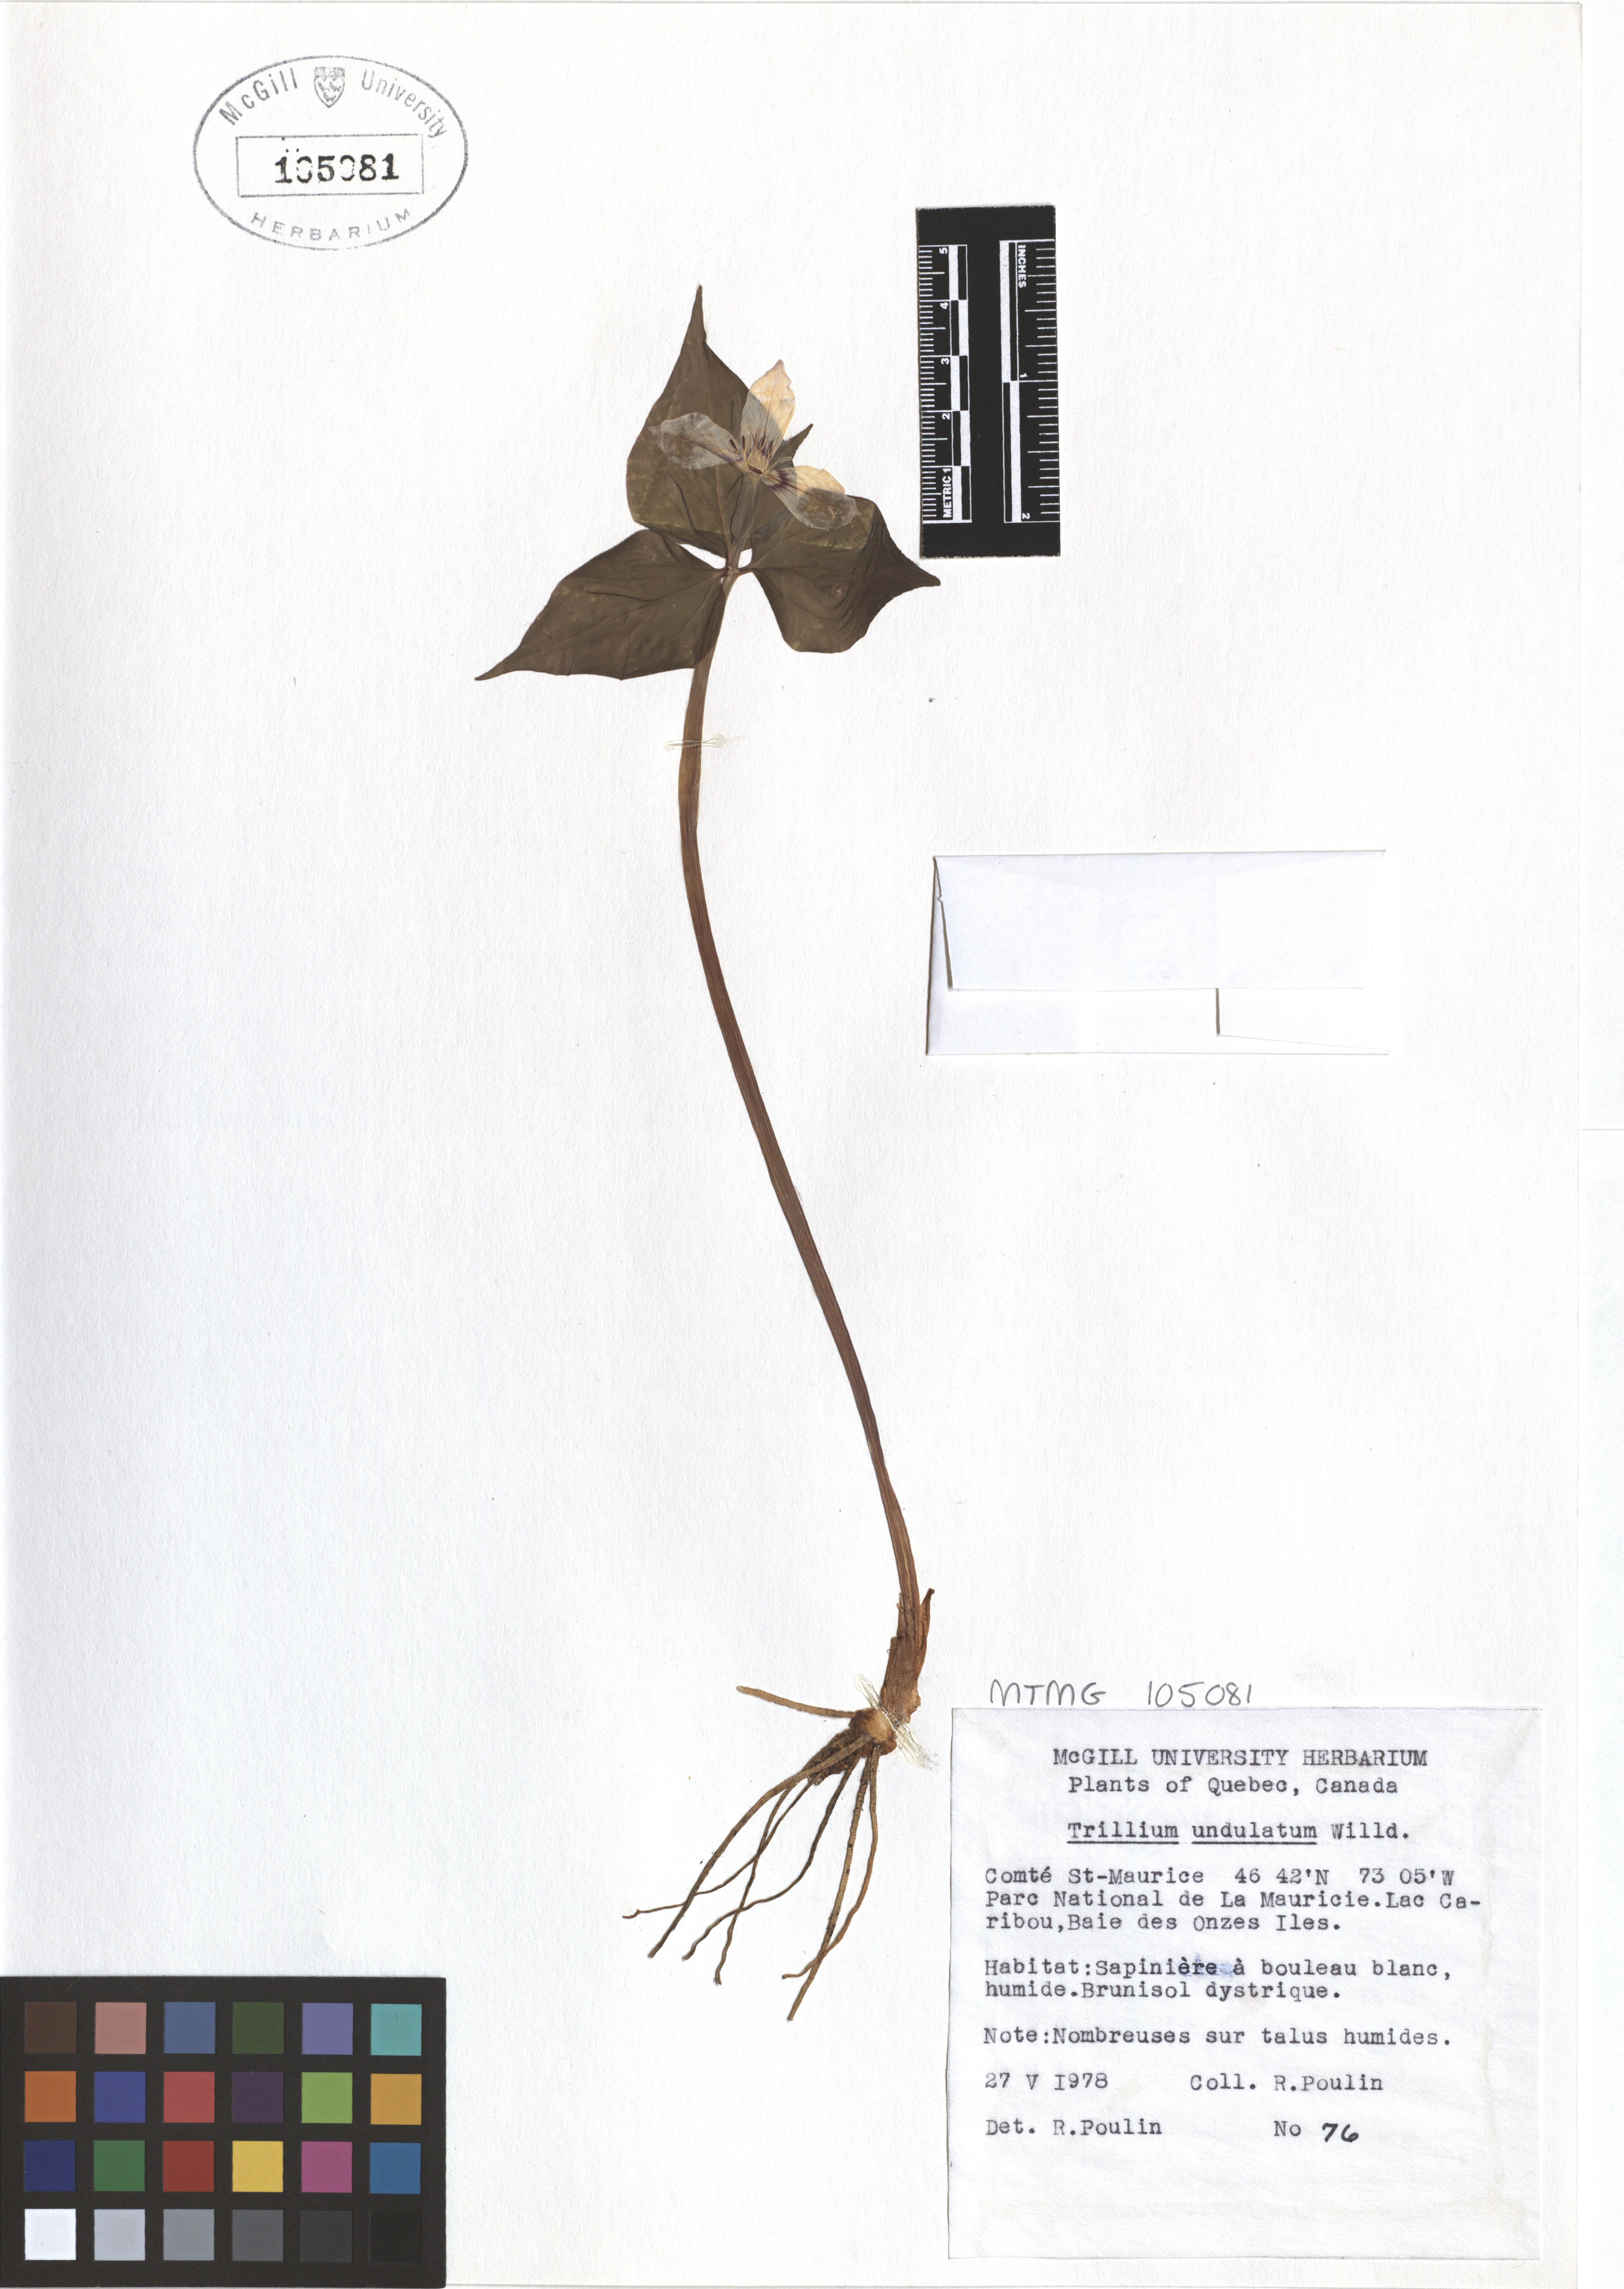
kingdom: Plantae
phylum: Tracheophyta
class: Liliopsida
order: Liliales
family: Melanthiaceae
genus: Trillium
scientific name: Trillium undulatum
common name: Paint trillium
